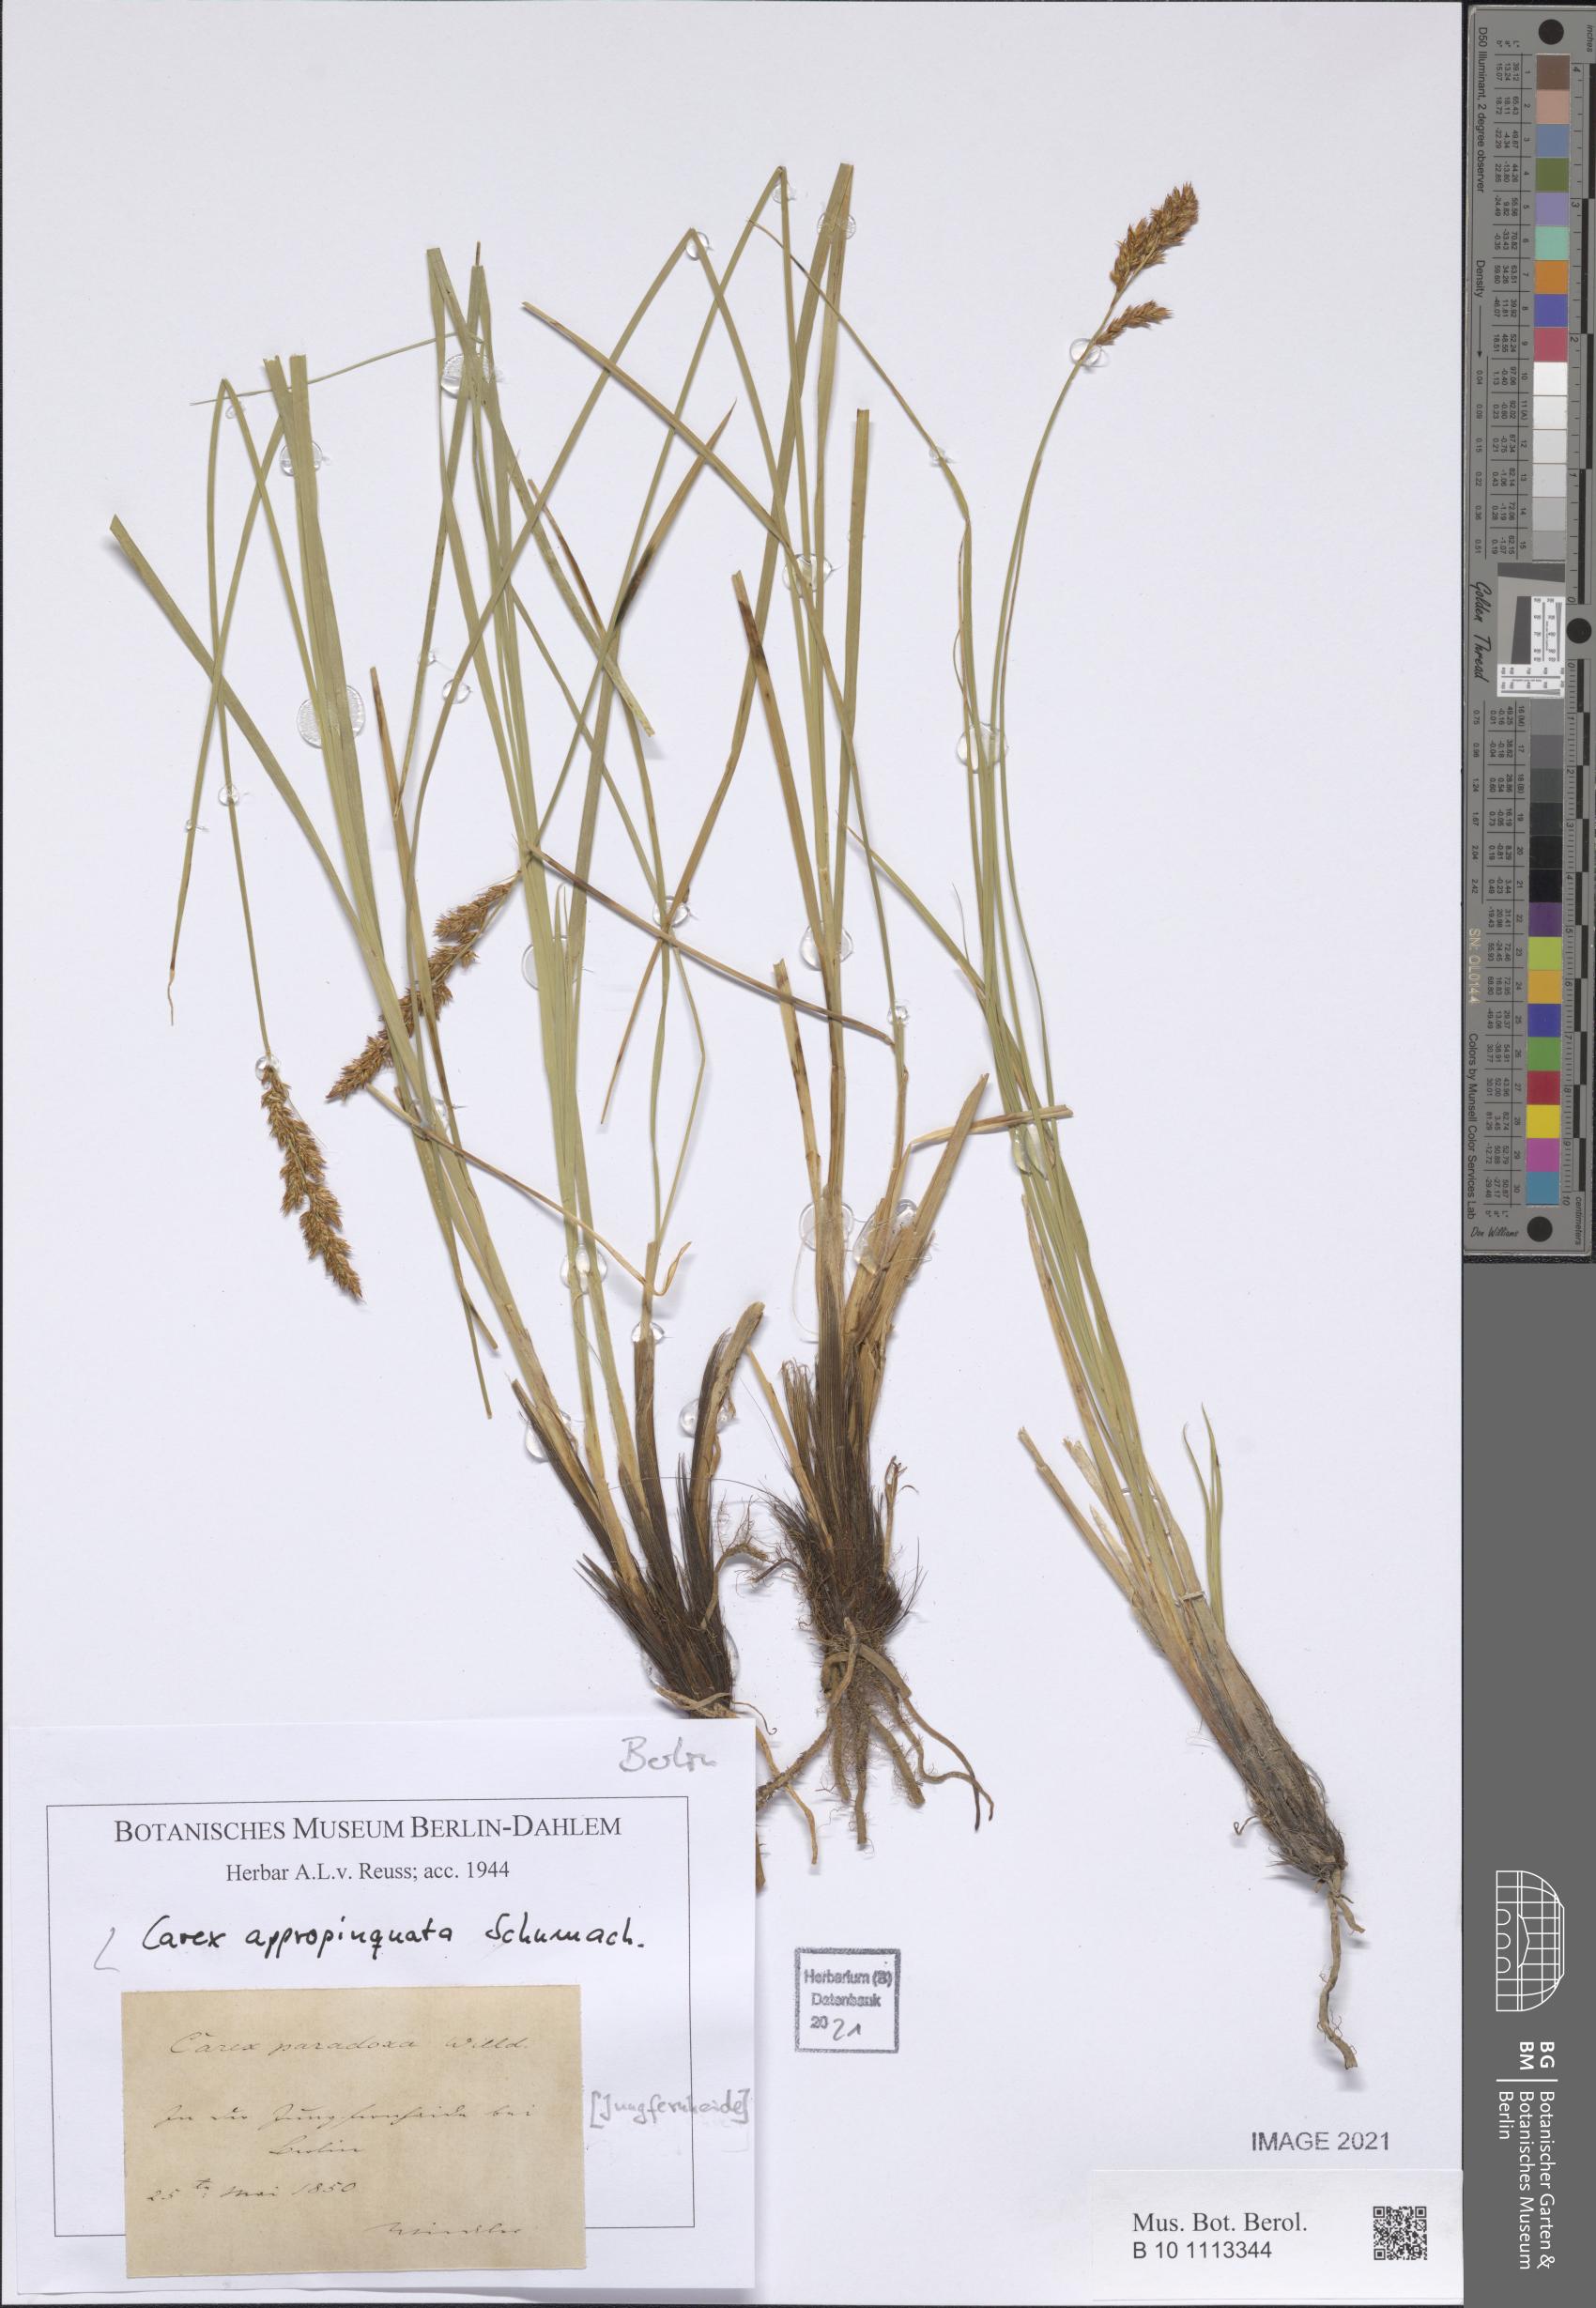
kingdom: Plantae
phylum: Tracheophyta
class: Liliopsida
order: Poales
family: Cyperaceae
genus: Carex
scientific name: Carex appropinquata
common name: Fibrous tussock-sedge
